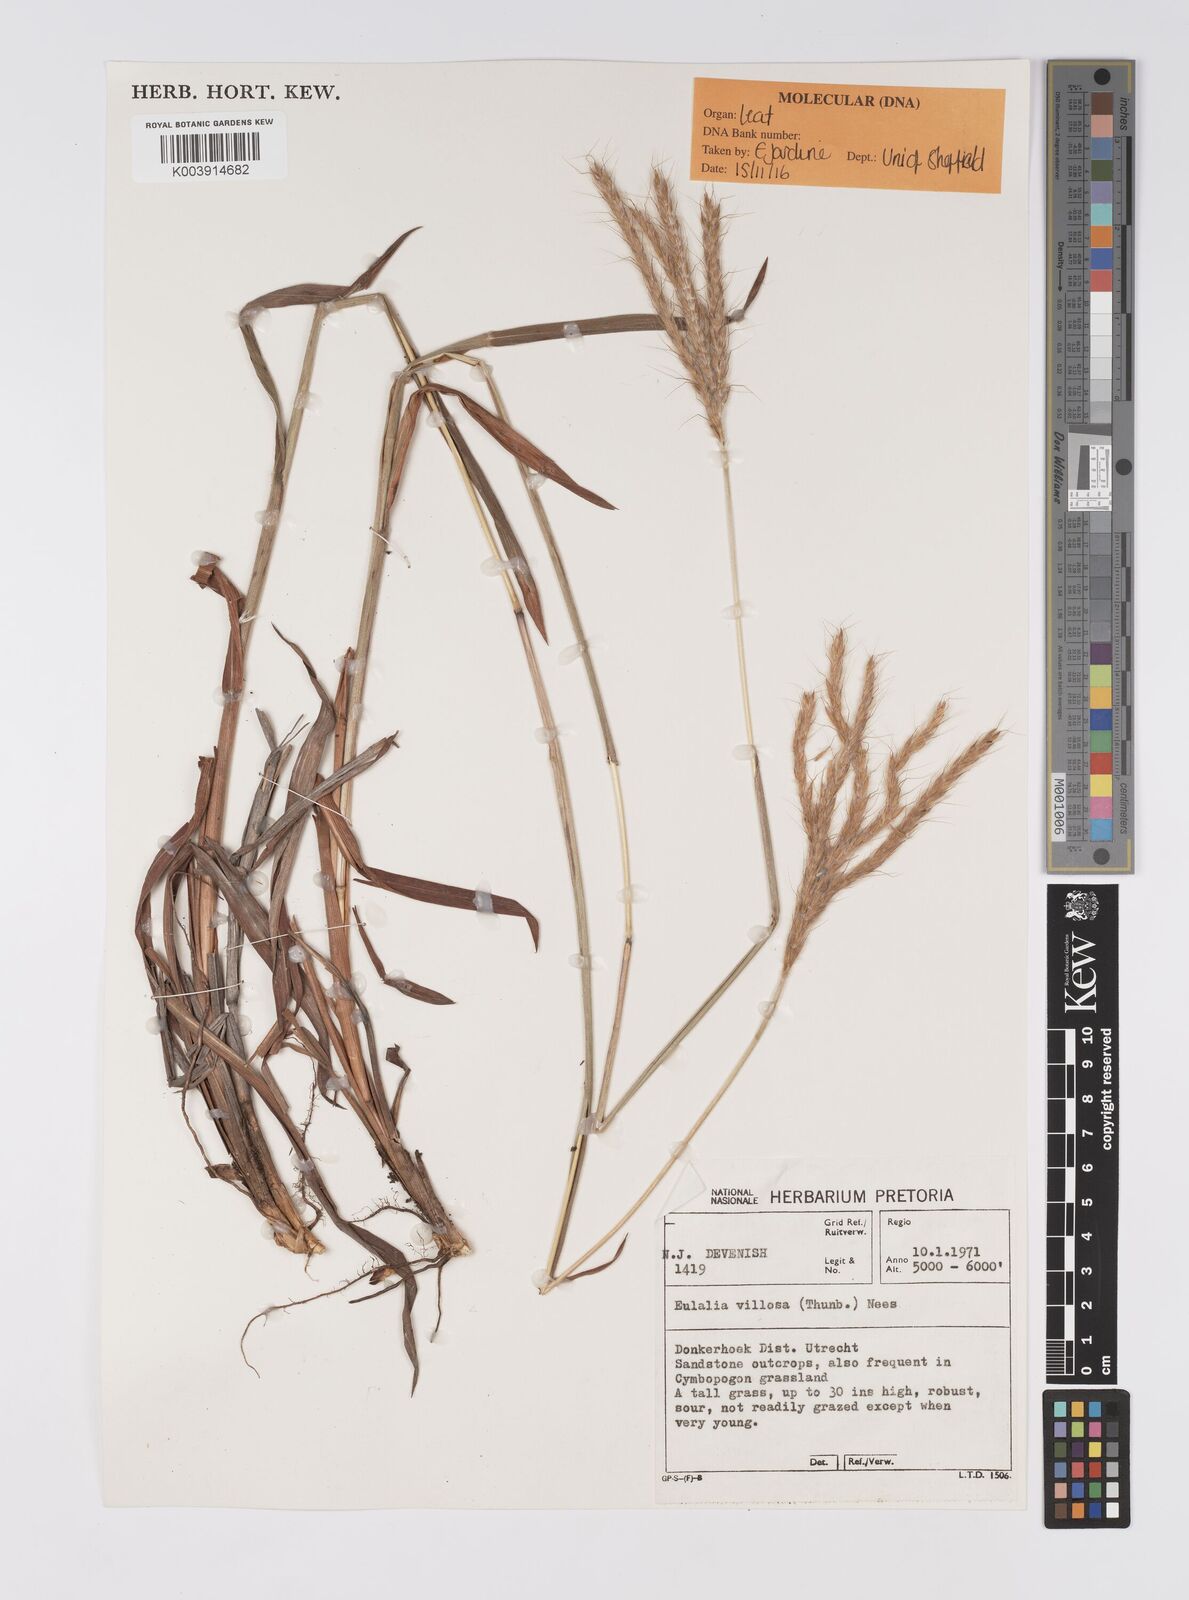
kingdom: Plantae
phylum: Tracheophyta
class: Liliopsida
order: Poales
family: Poaceae
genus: Eulalia
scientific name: Eulalia villosa
